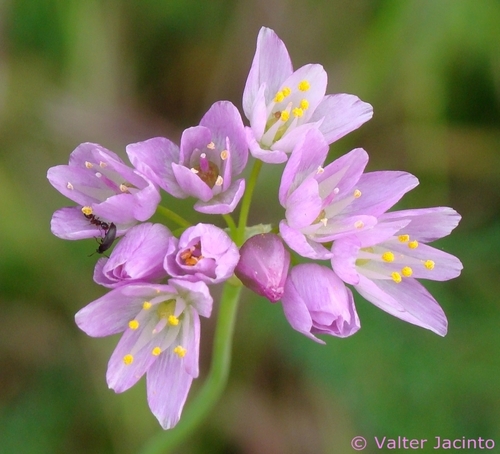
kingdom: Plantae
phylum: Tracheophyta
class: Liliopsida
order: Asparagales
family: Amaryllidaceae
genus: Allium
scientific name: Allium roseum
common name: Rosy garlic
